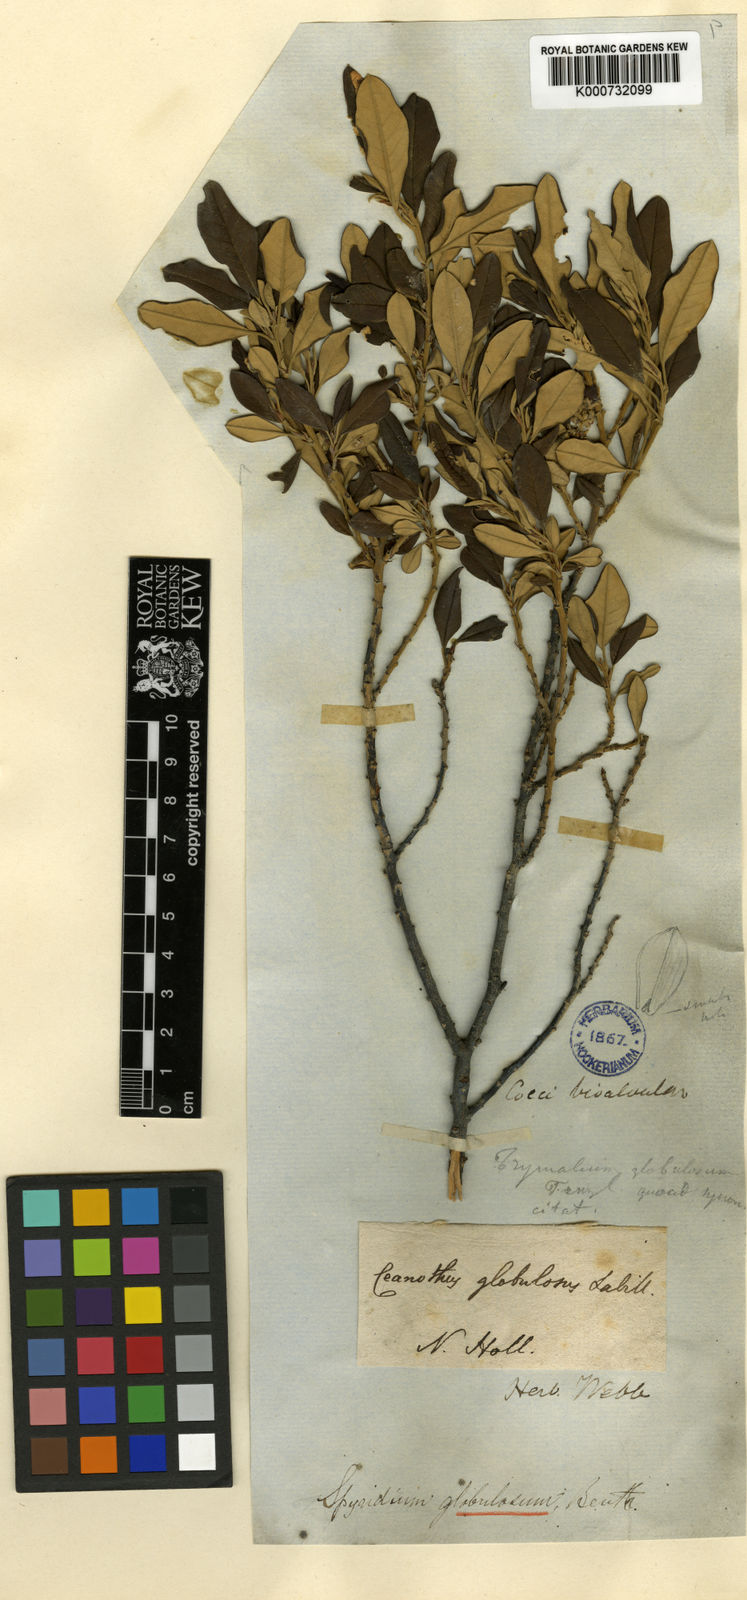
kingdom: Plantae
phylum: Tracheophyta
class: Magnoliopsida
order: Rosales
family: Rhamnaceae
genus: Spyridium
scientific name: Spyridium globulosum
